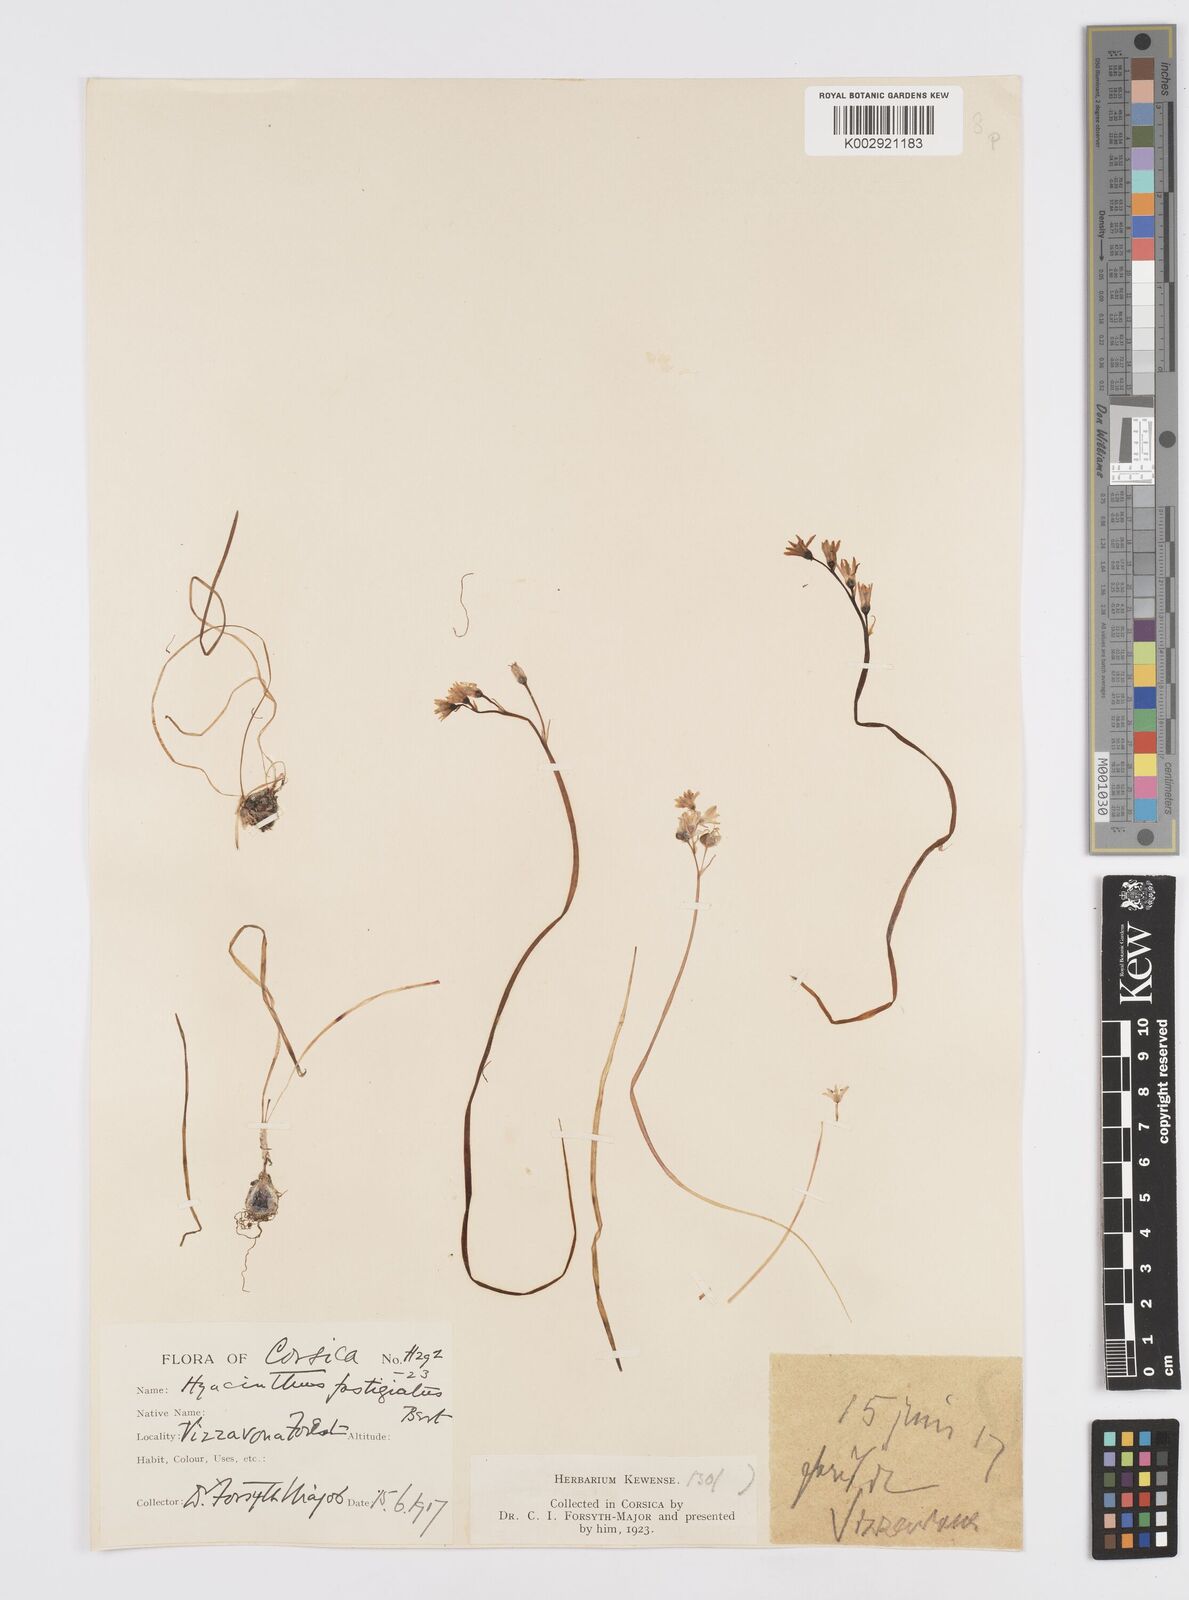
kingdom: Plantae
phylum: Tracheophyta
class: Liliopsida
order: Asparagales
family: Asparagaceae
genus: Brimeura
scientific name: Brimeura fastigiata
